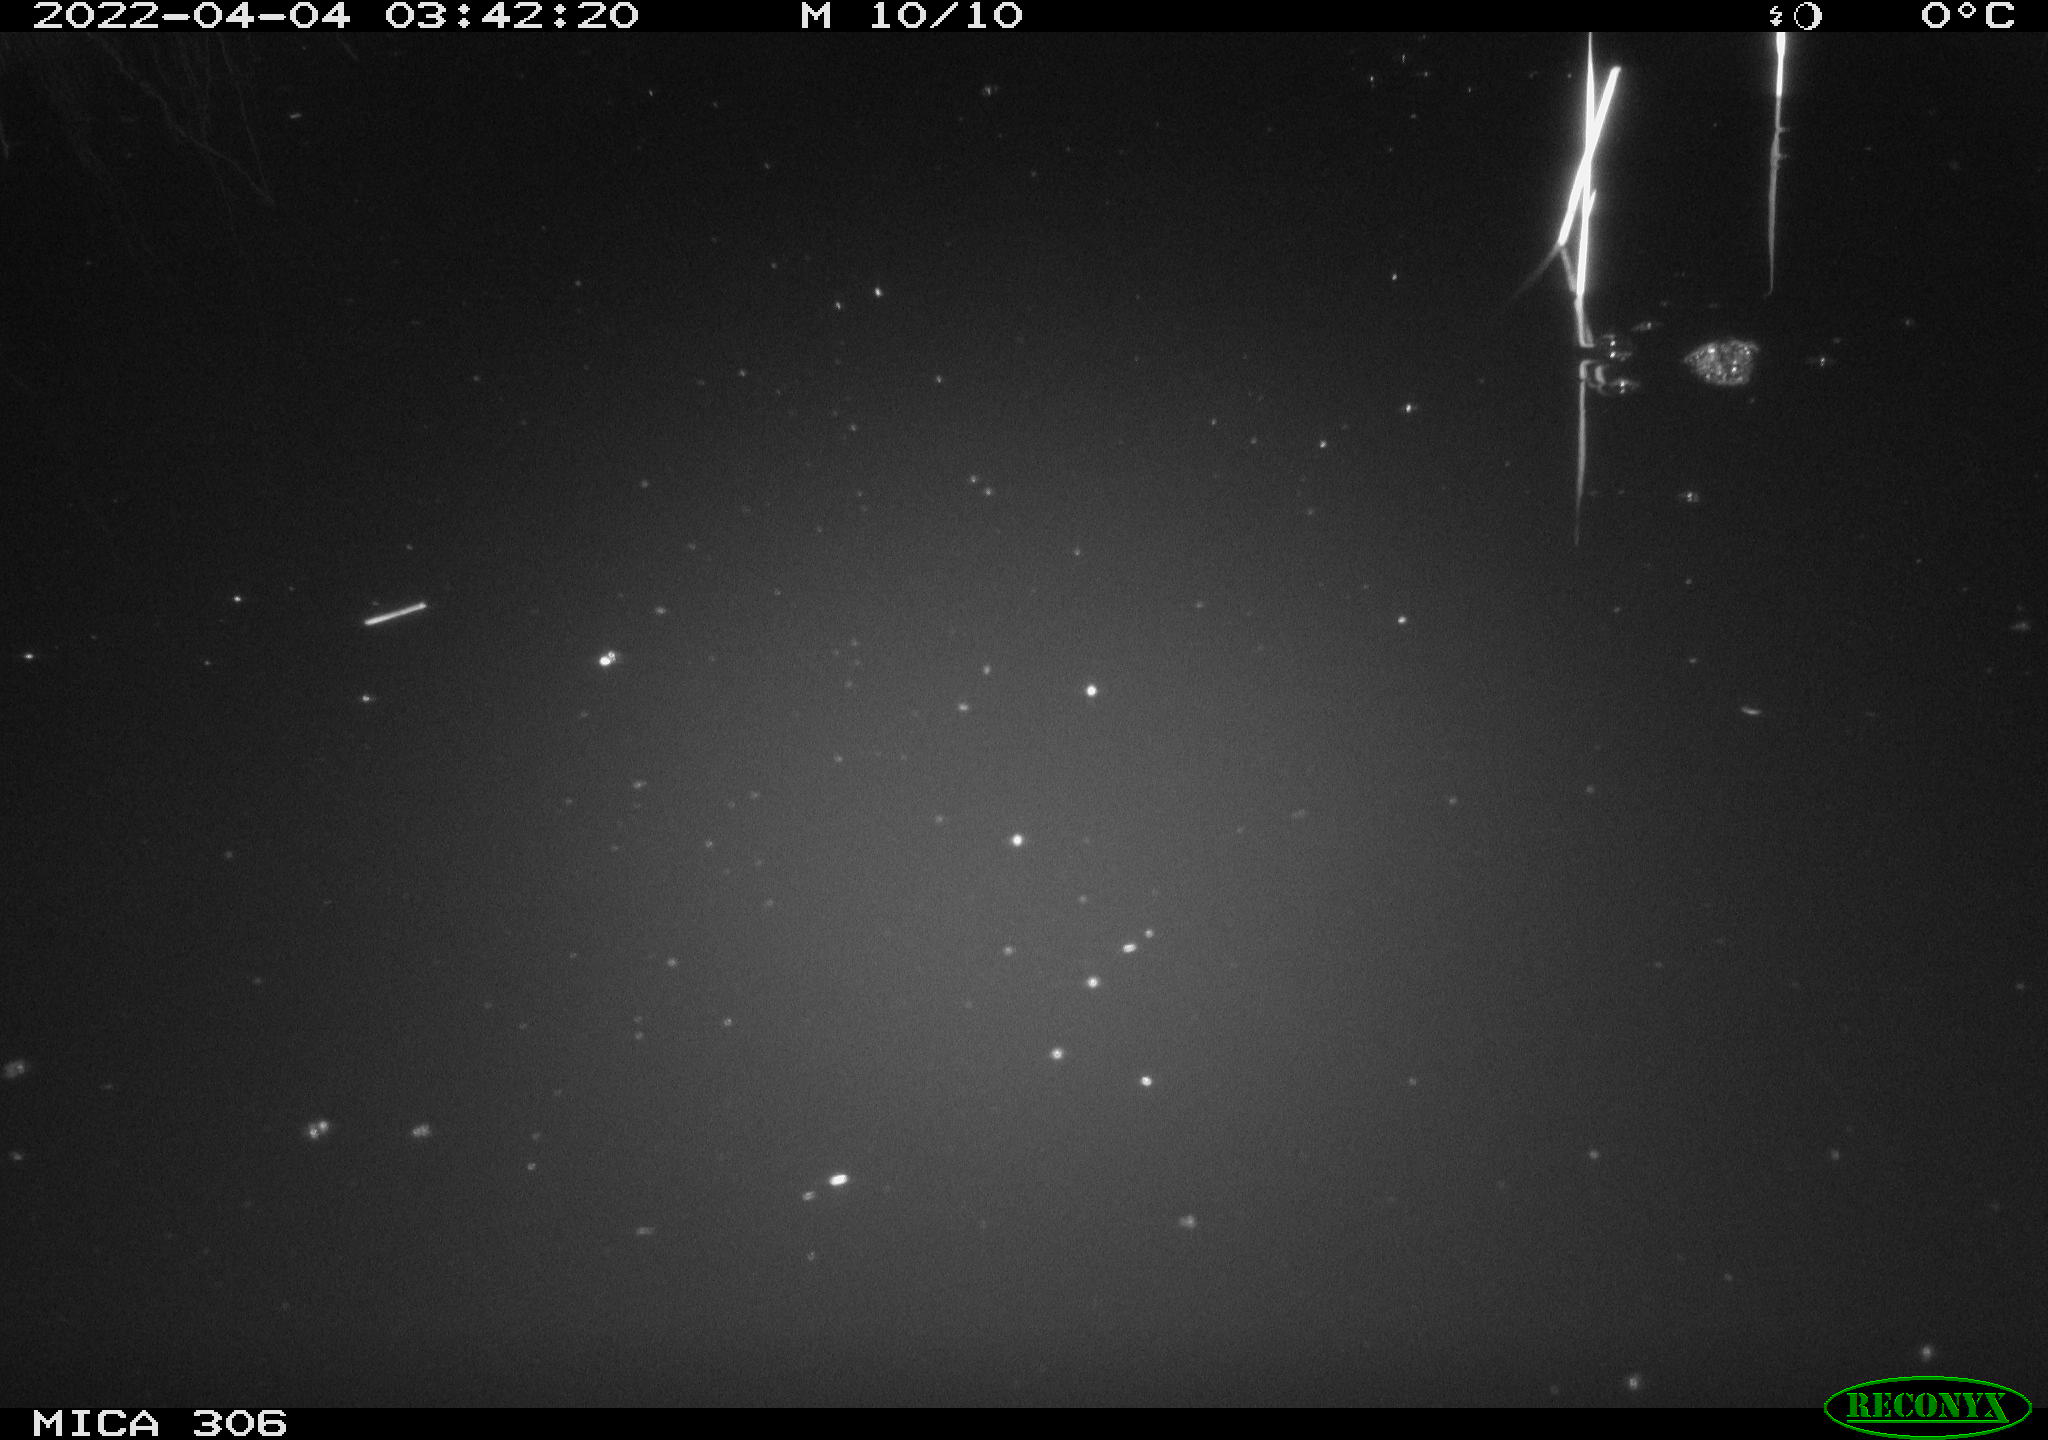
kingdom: Animalia
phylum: Chordata
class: Aves
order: Anseriformes
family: Anatidae
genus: Anas
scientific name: Anas platyrhynchos
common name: Mallard
